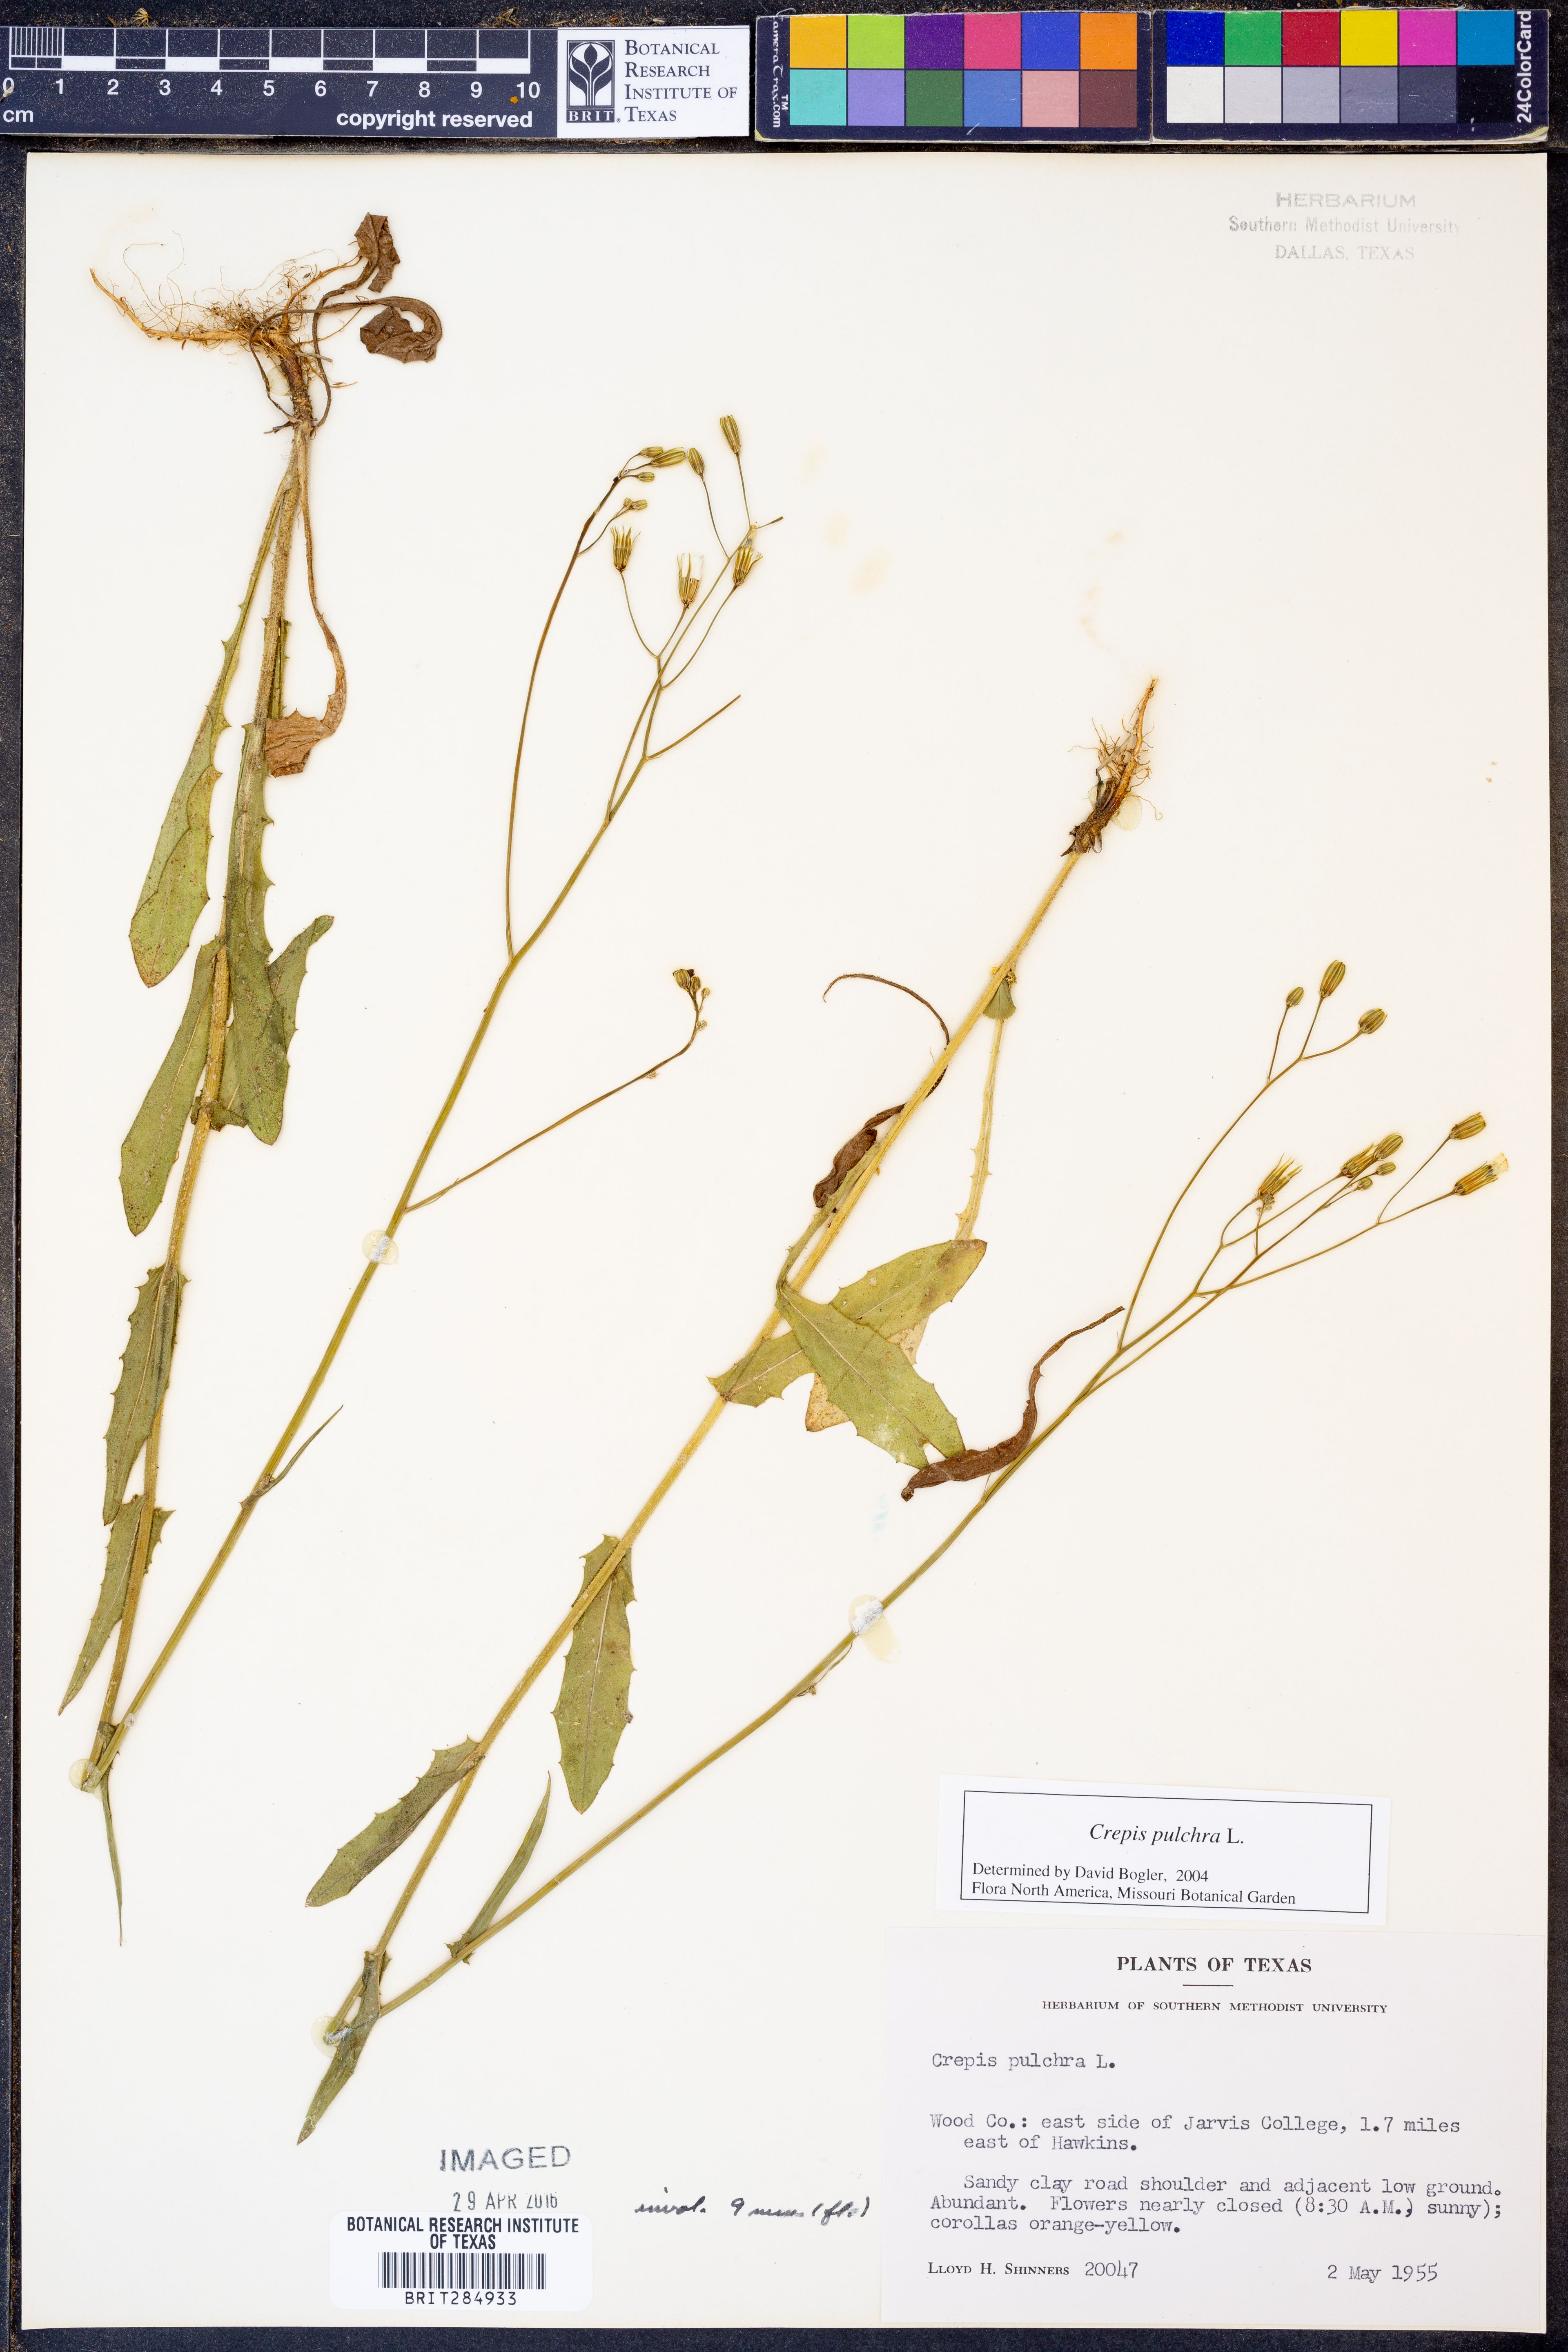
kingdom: Plantae
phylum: Tracheophyta
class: Magnoliopsida
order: Asterales
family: Asteraceae
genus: Crepis
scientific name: Crepis pulchra
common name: Hawk's-beard
